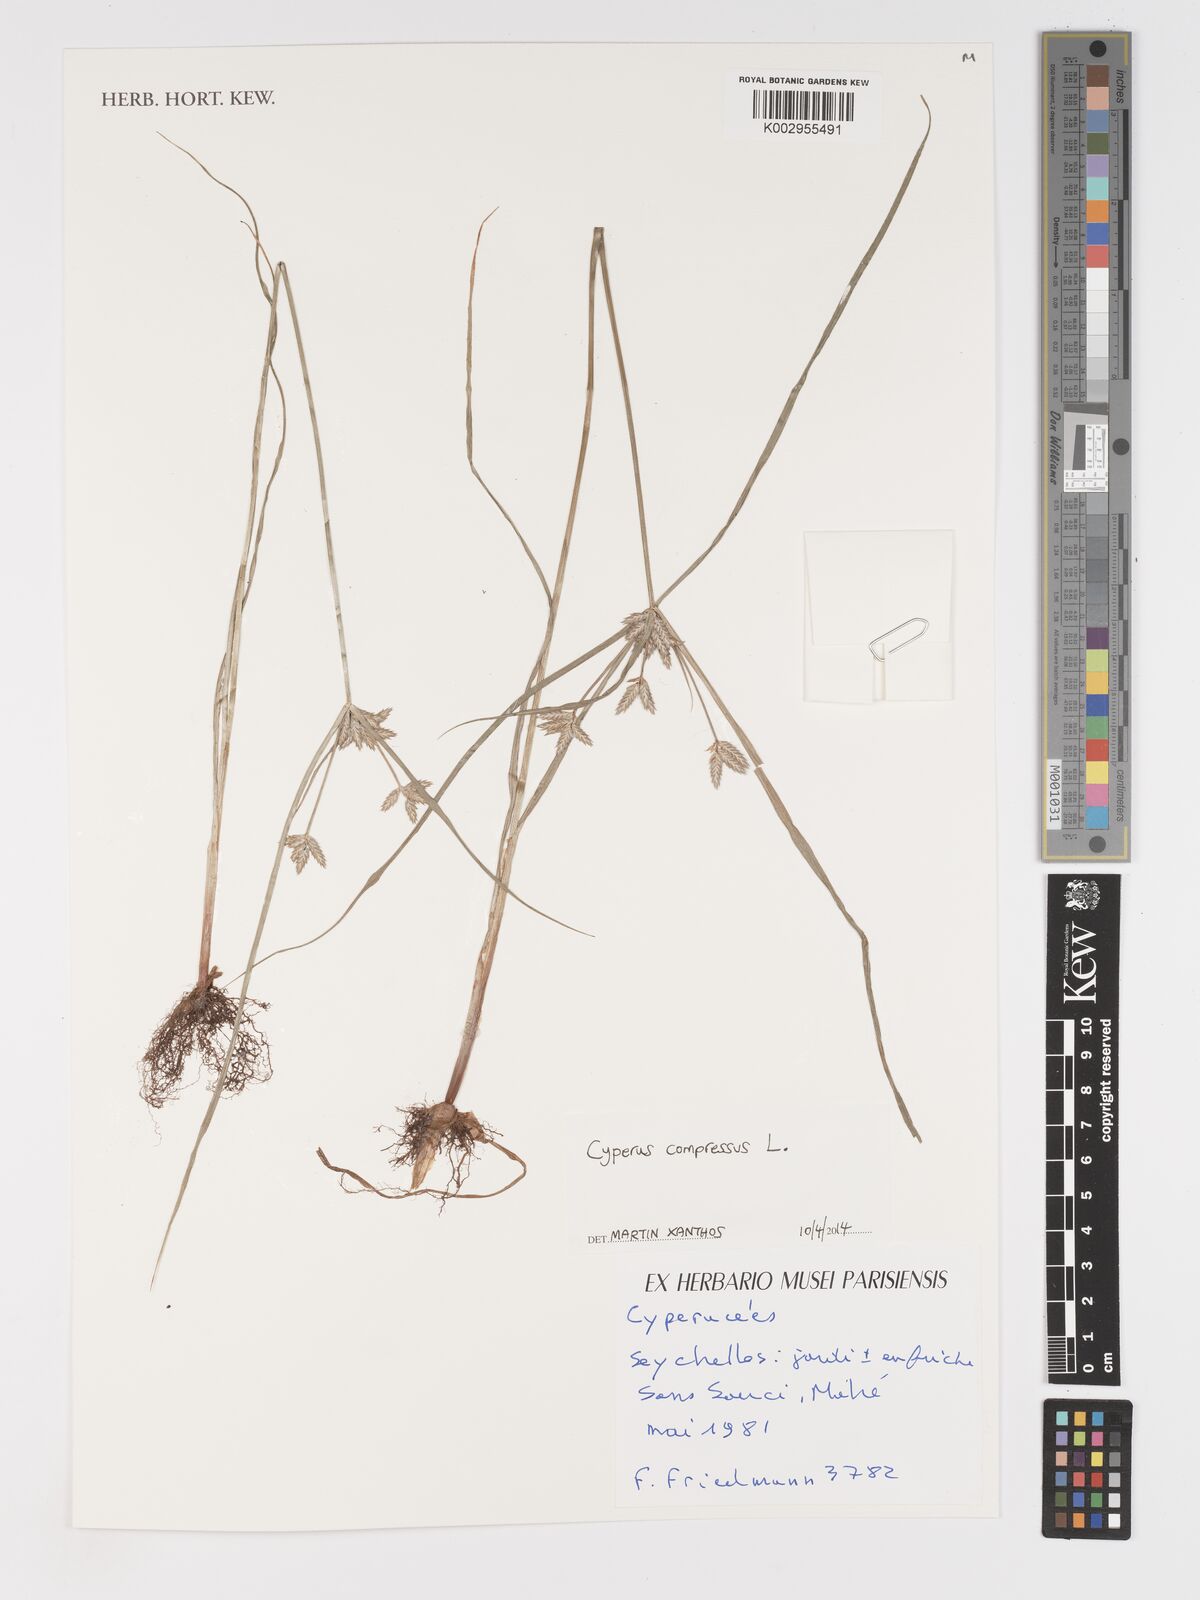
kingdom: Plantae
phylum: Tracheophyta
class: Liliopsida
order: Poales
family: Cyperaceae
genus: Cyperus
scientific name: Cyperus compressus
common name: Poorland flatsedge
